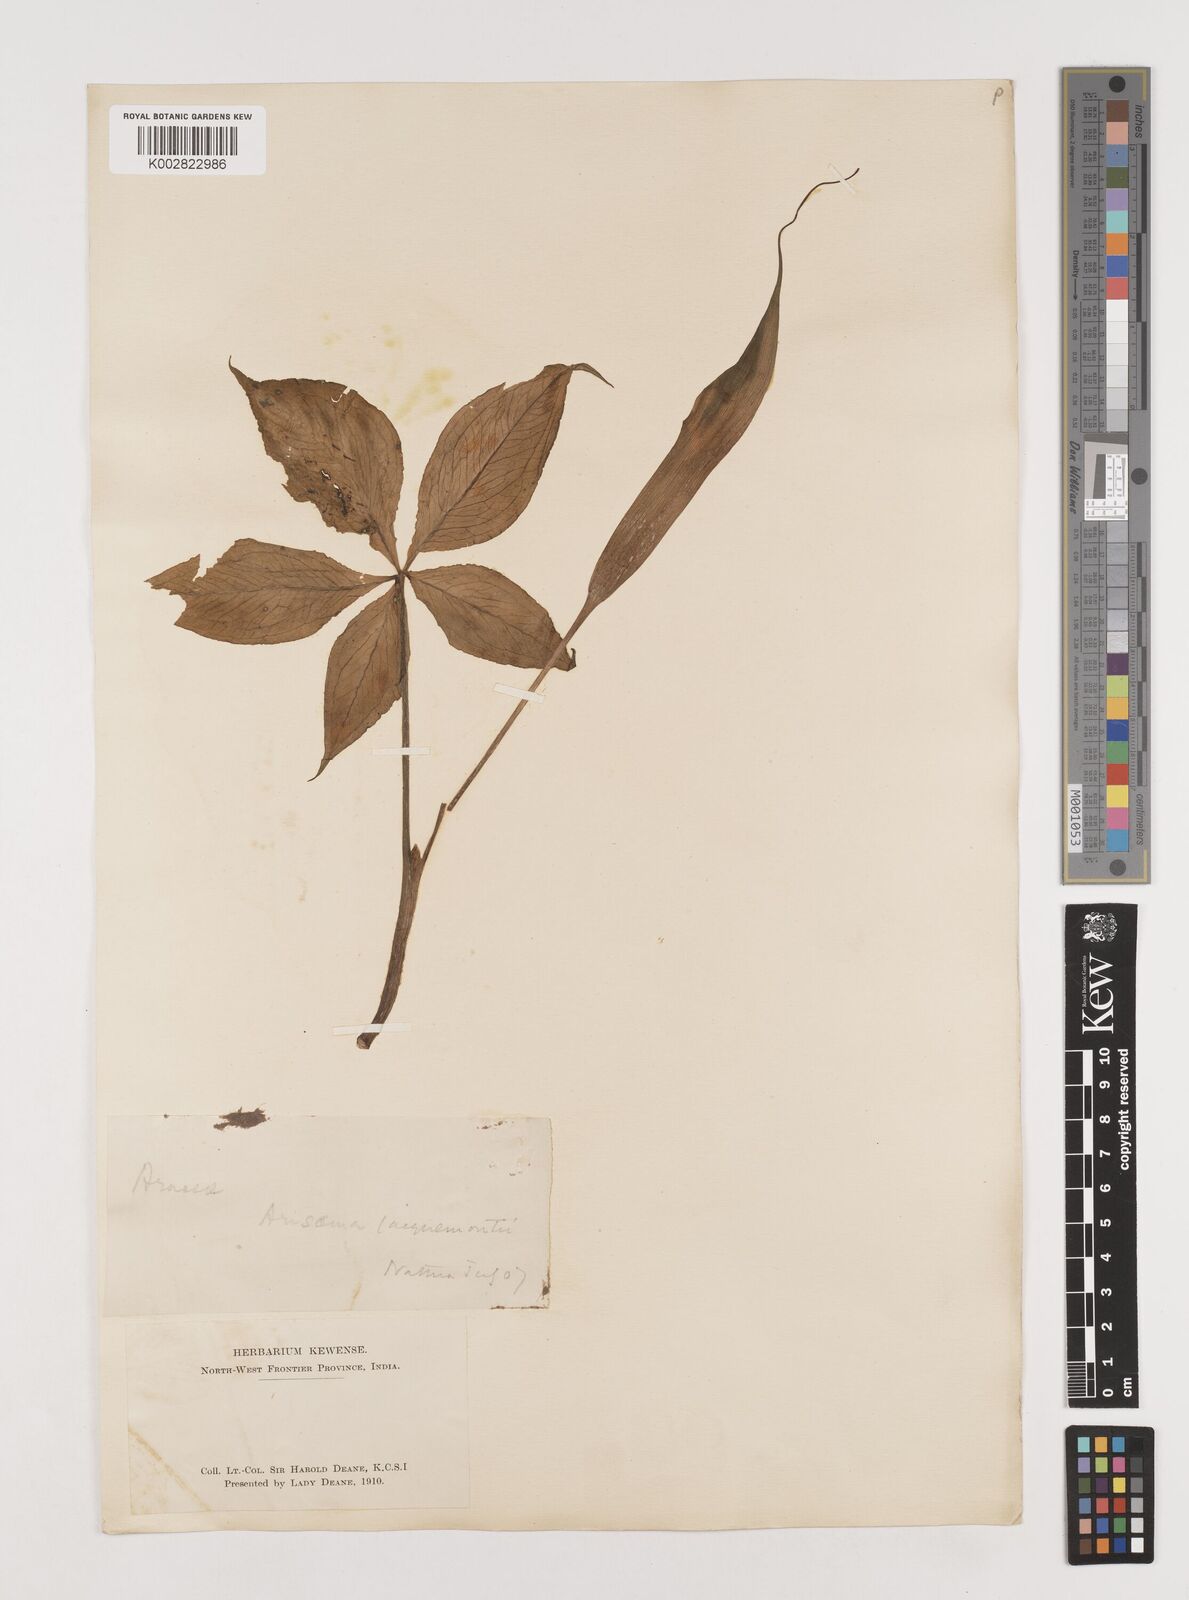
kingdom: Plantae
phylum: Tracheophyta
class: Liliopsida
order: Alismatales
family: Araceae
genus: Arisaema
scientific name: Arisaema jacquemontii
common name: Jacquemont's cobra-lily
